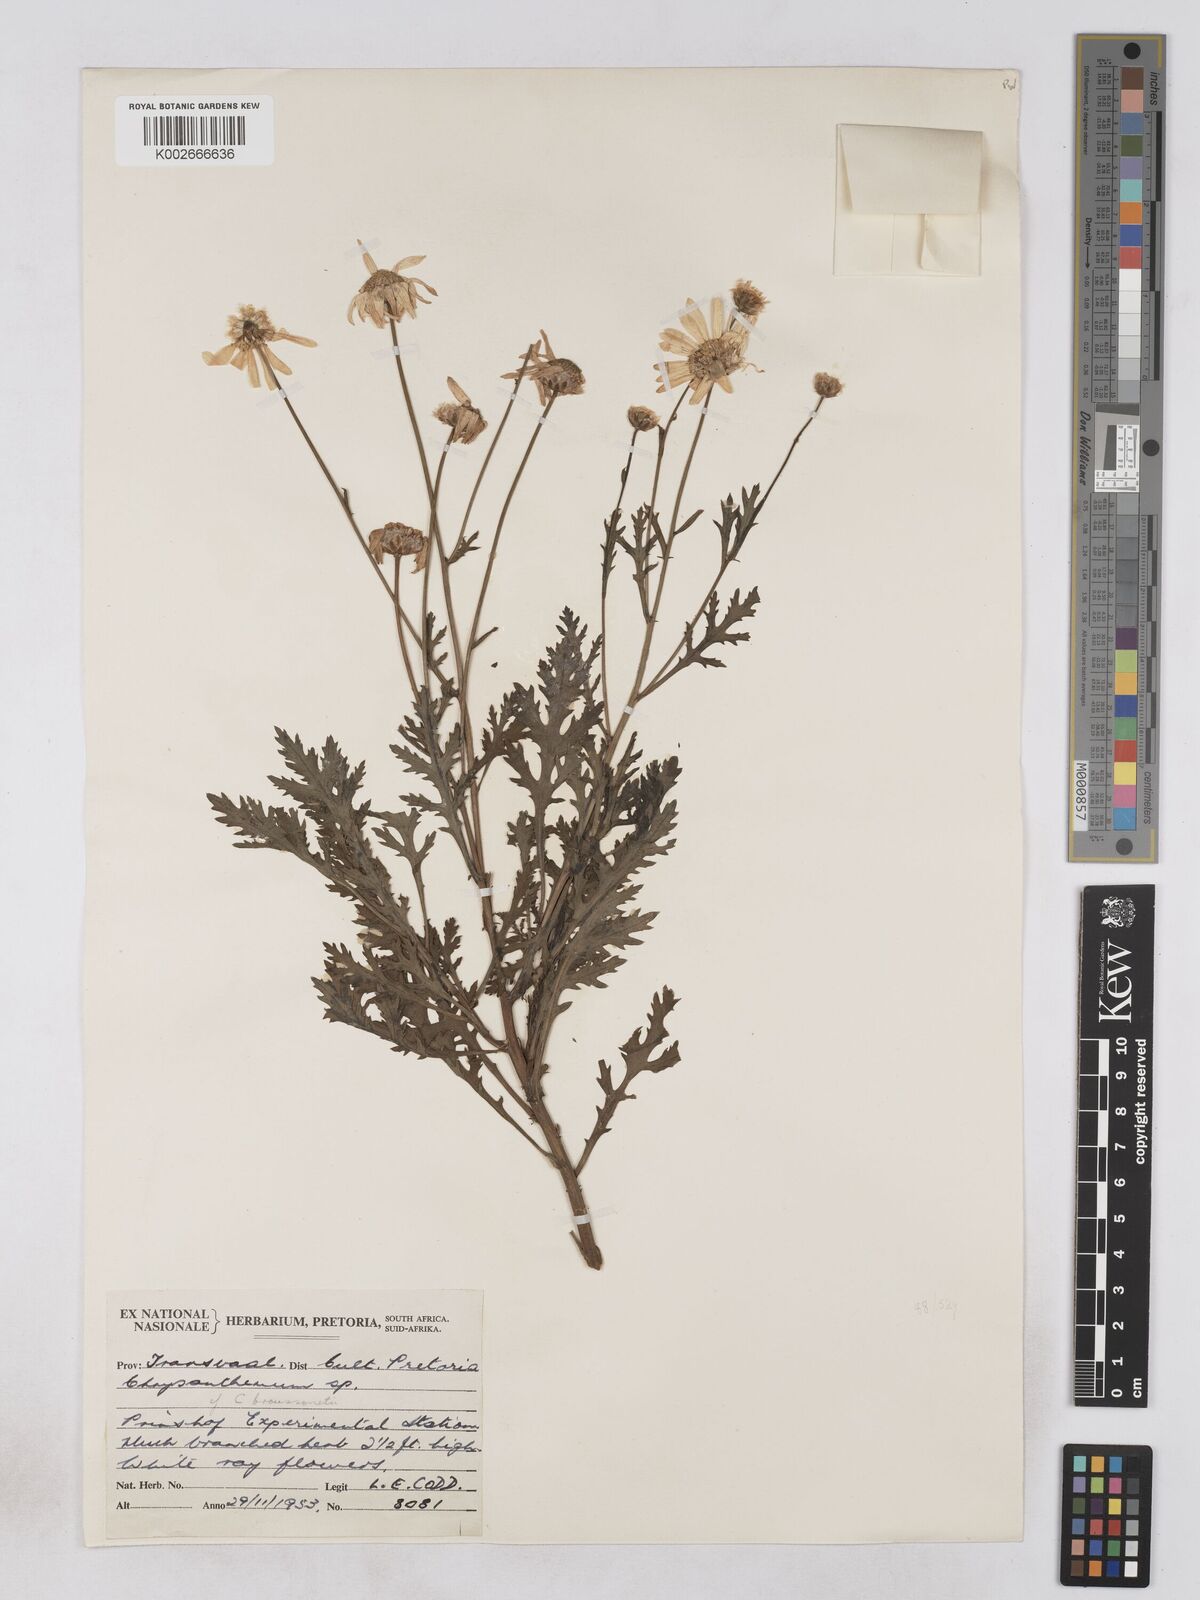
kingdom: Plantae
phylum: Tracheophyta
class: Magnoliopsida
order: Asterales
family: Asteraceae
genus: Argyranthemum
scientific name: Argyranthemum
